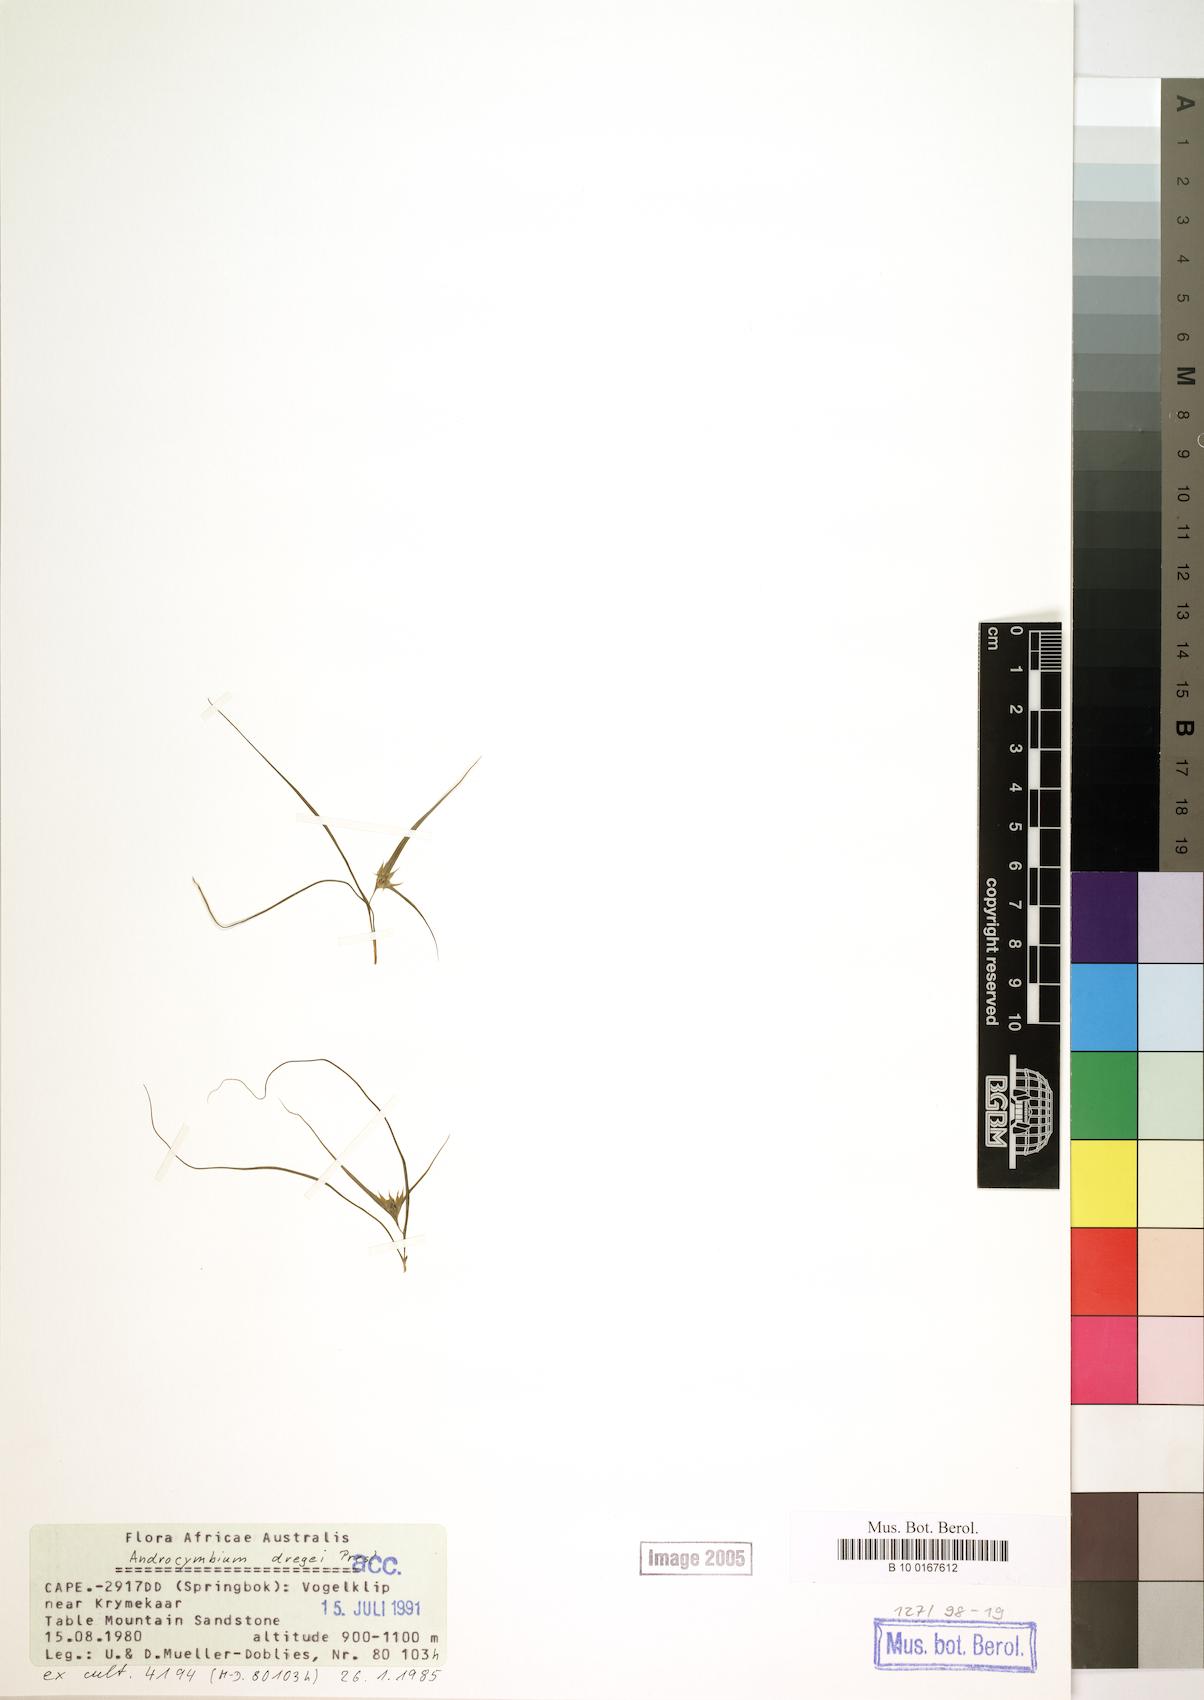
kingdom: Plantae
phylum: Tracheophyta
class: Liliopsida
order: Liliales
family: Colchicaceae
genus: Colchicum
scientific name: Colchicum dregei
